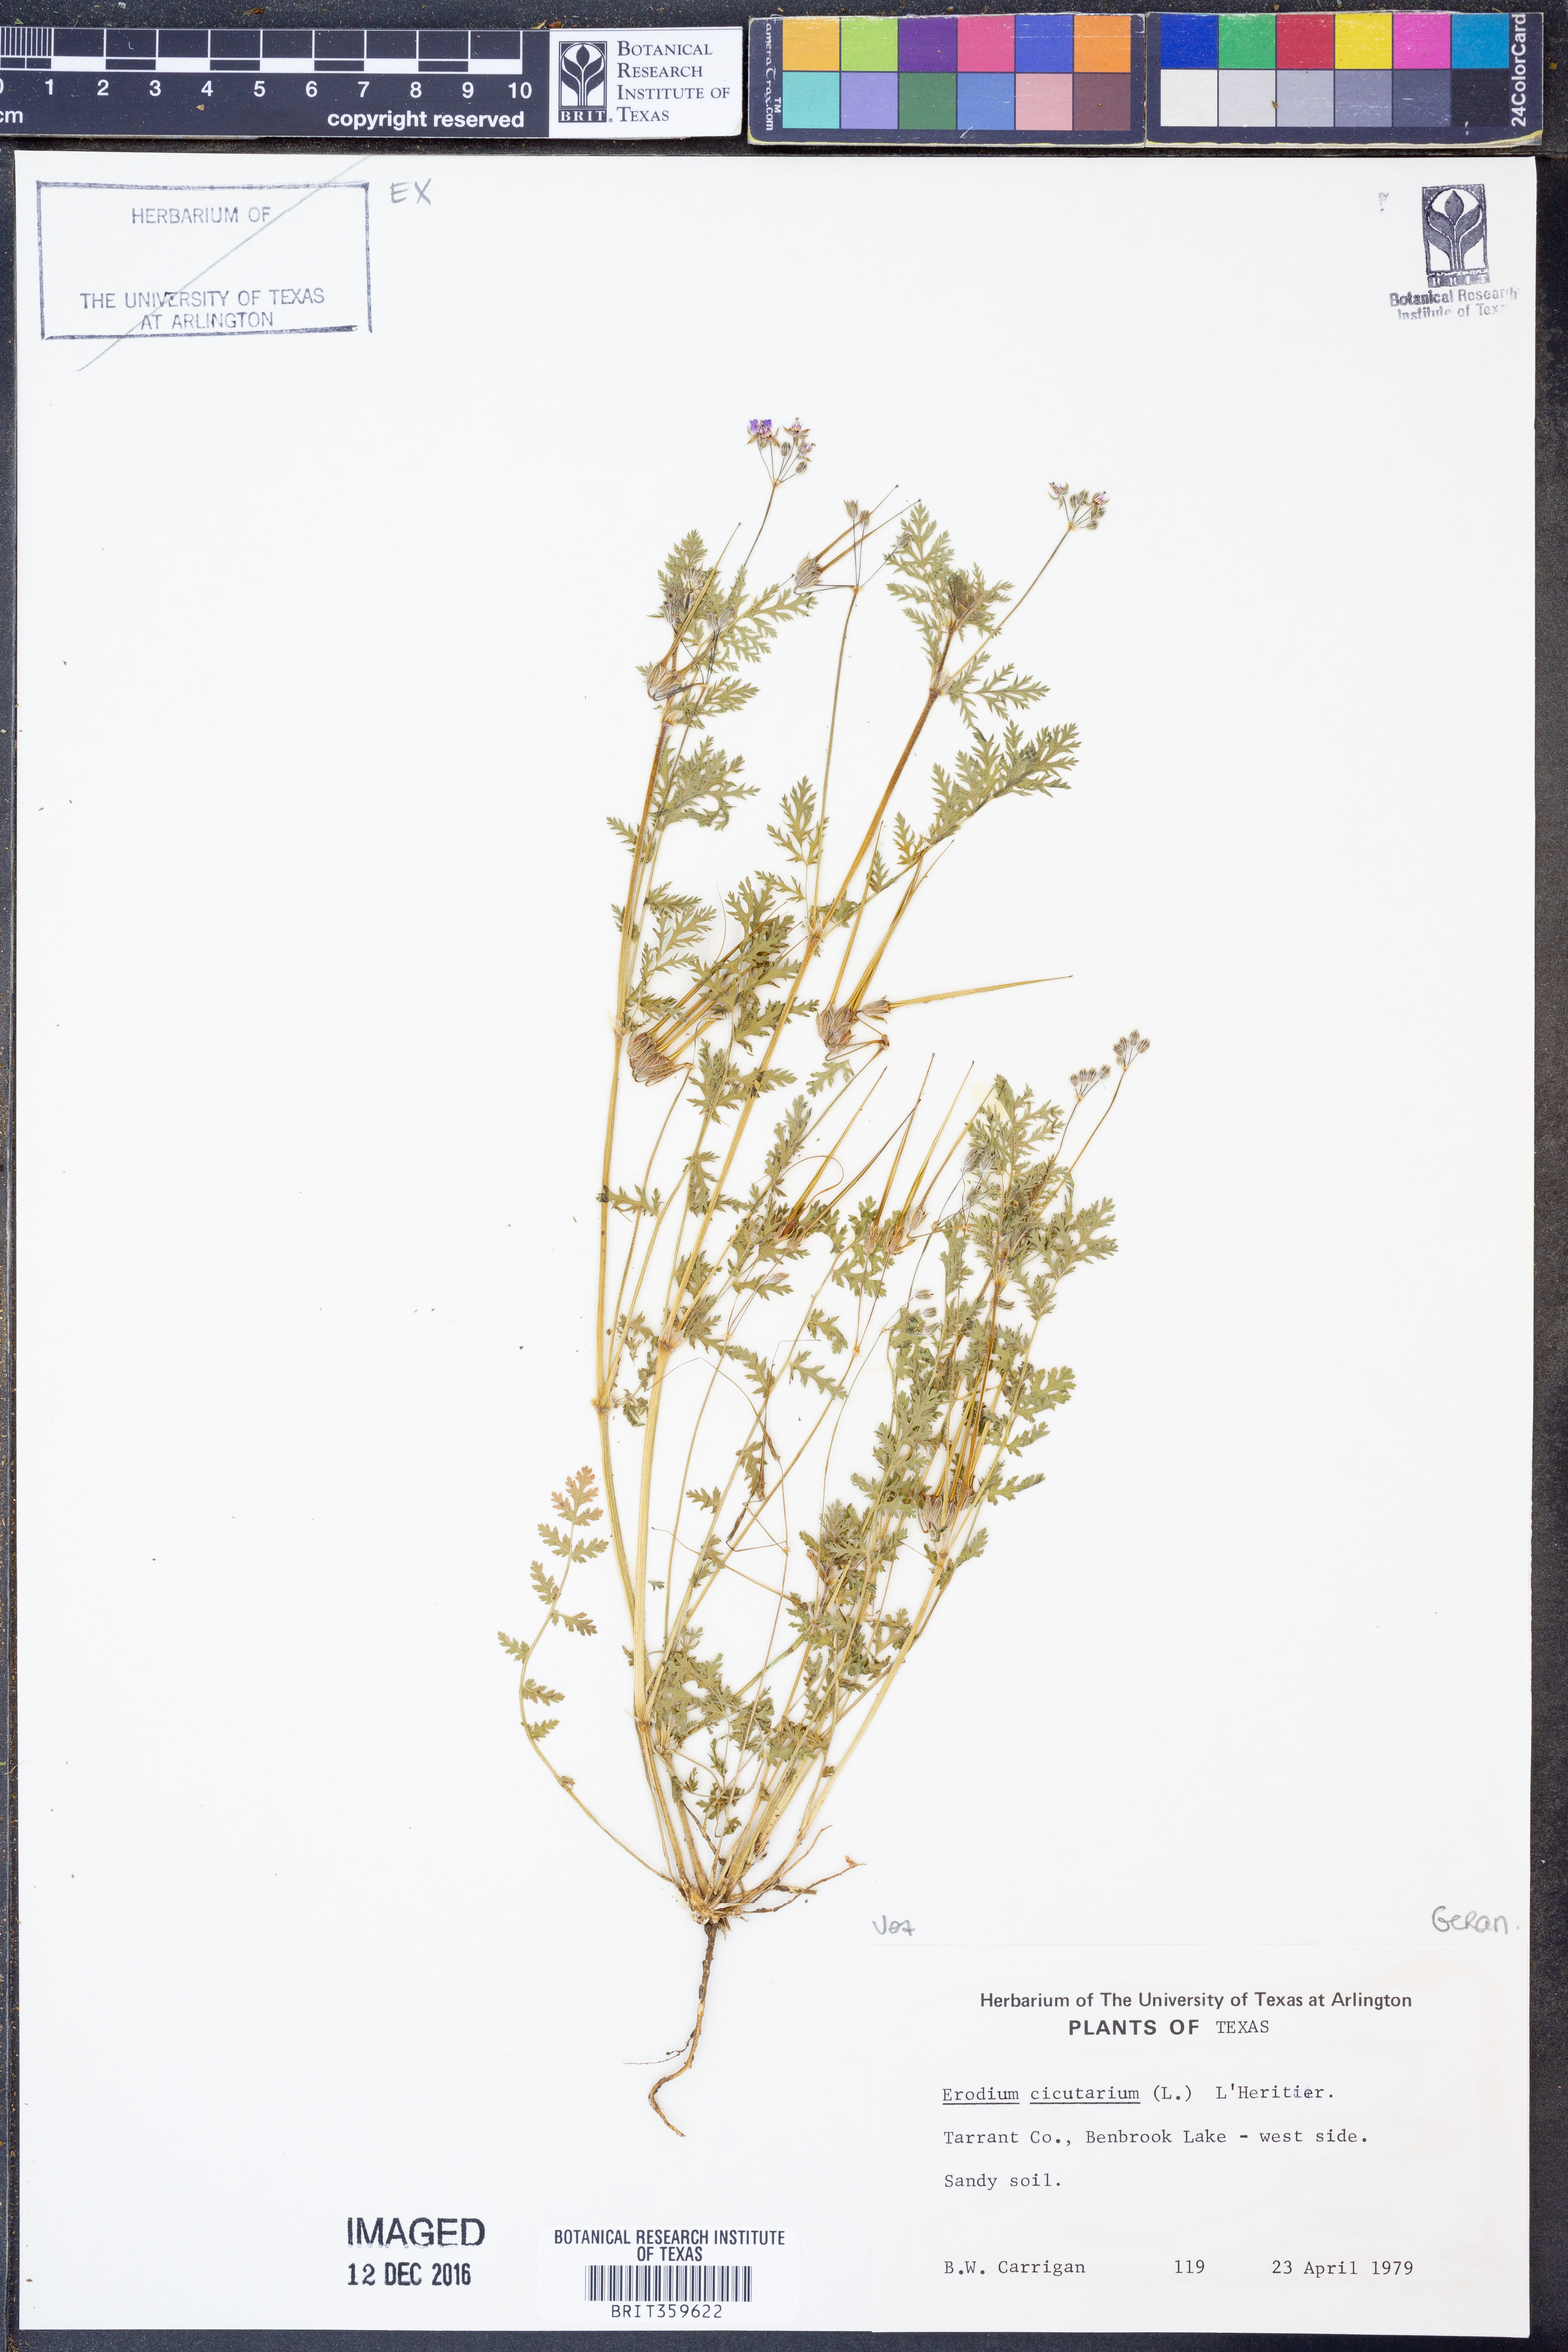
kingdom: Plantae
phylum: Tracheophyta
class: Magnoliopsida
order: Geraniales
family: Geraniaceae
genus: Erodium
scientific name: Erodium cicutarium
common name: Common stork's-bill
